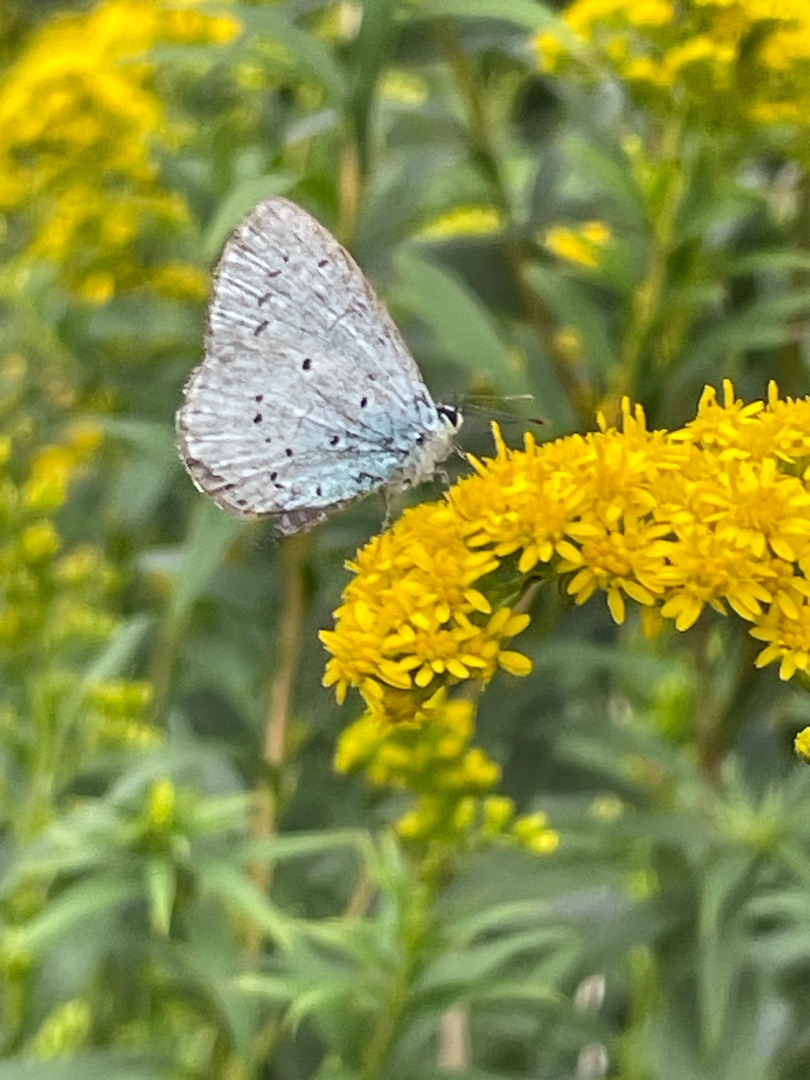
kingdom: Animalia
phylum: Arthropoda
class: Insecta
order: Lepidoptera
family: Lycaenidae
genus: Celastrina
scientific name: Celastrina argiolus
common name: Skovblåfugl
